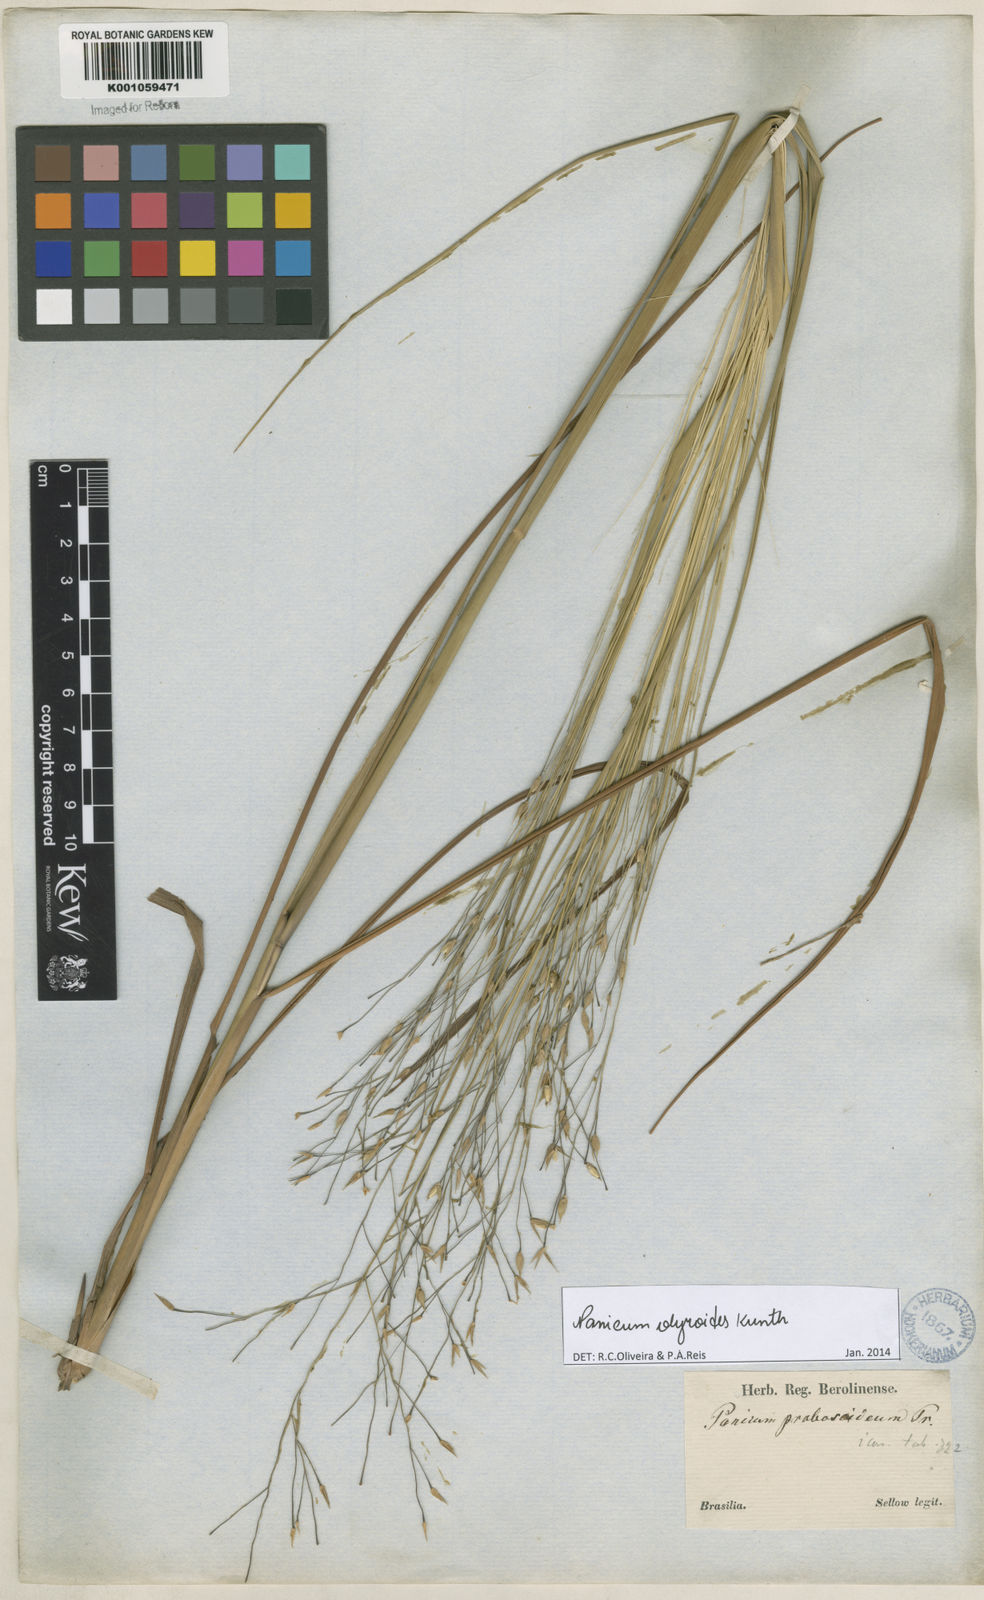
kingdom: Plantae
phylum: Tracheophyta
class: Liliopsida
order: Poales
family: Poaceae
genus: Panicum
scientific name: Panicum olyroides
